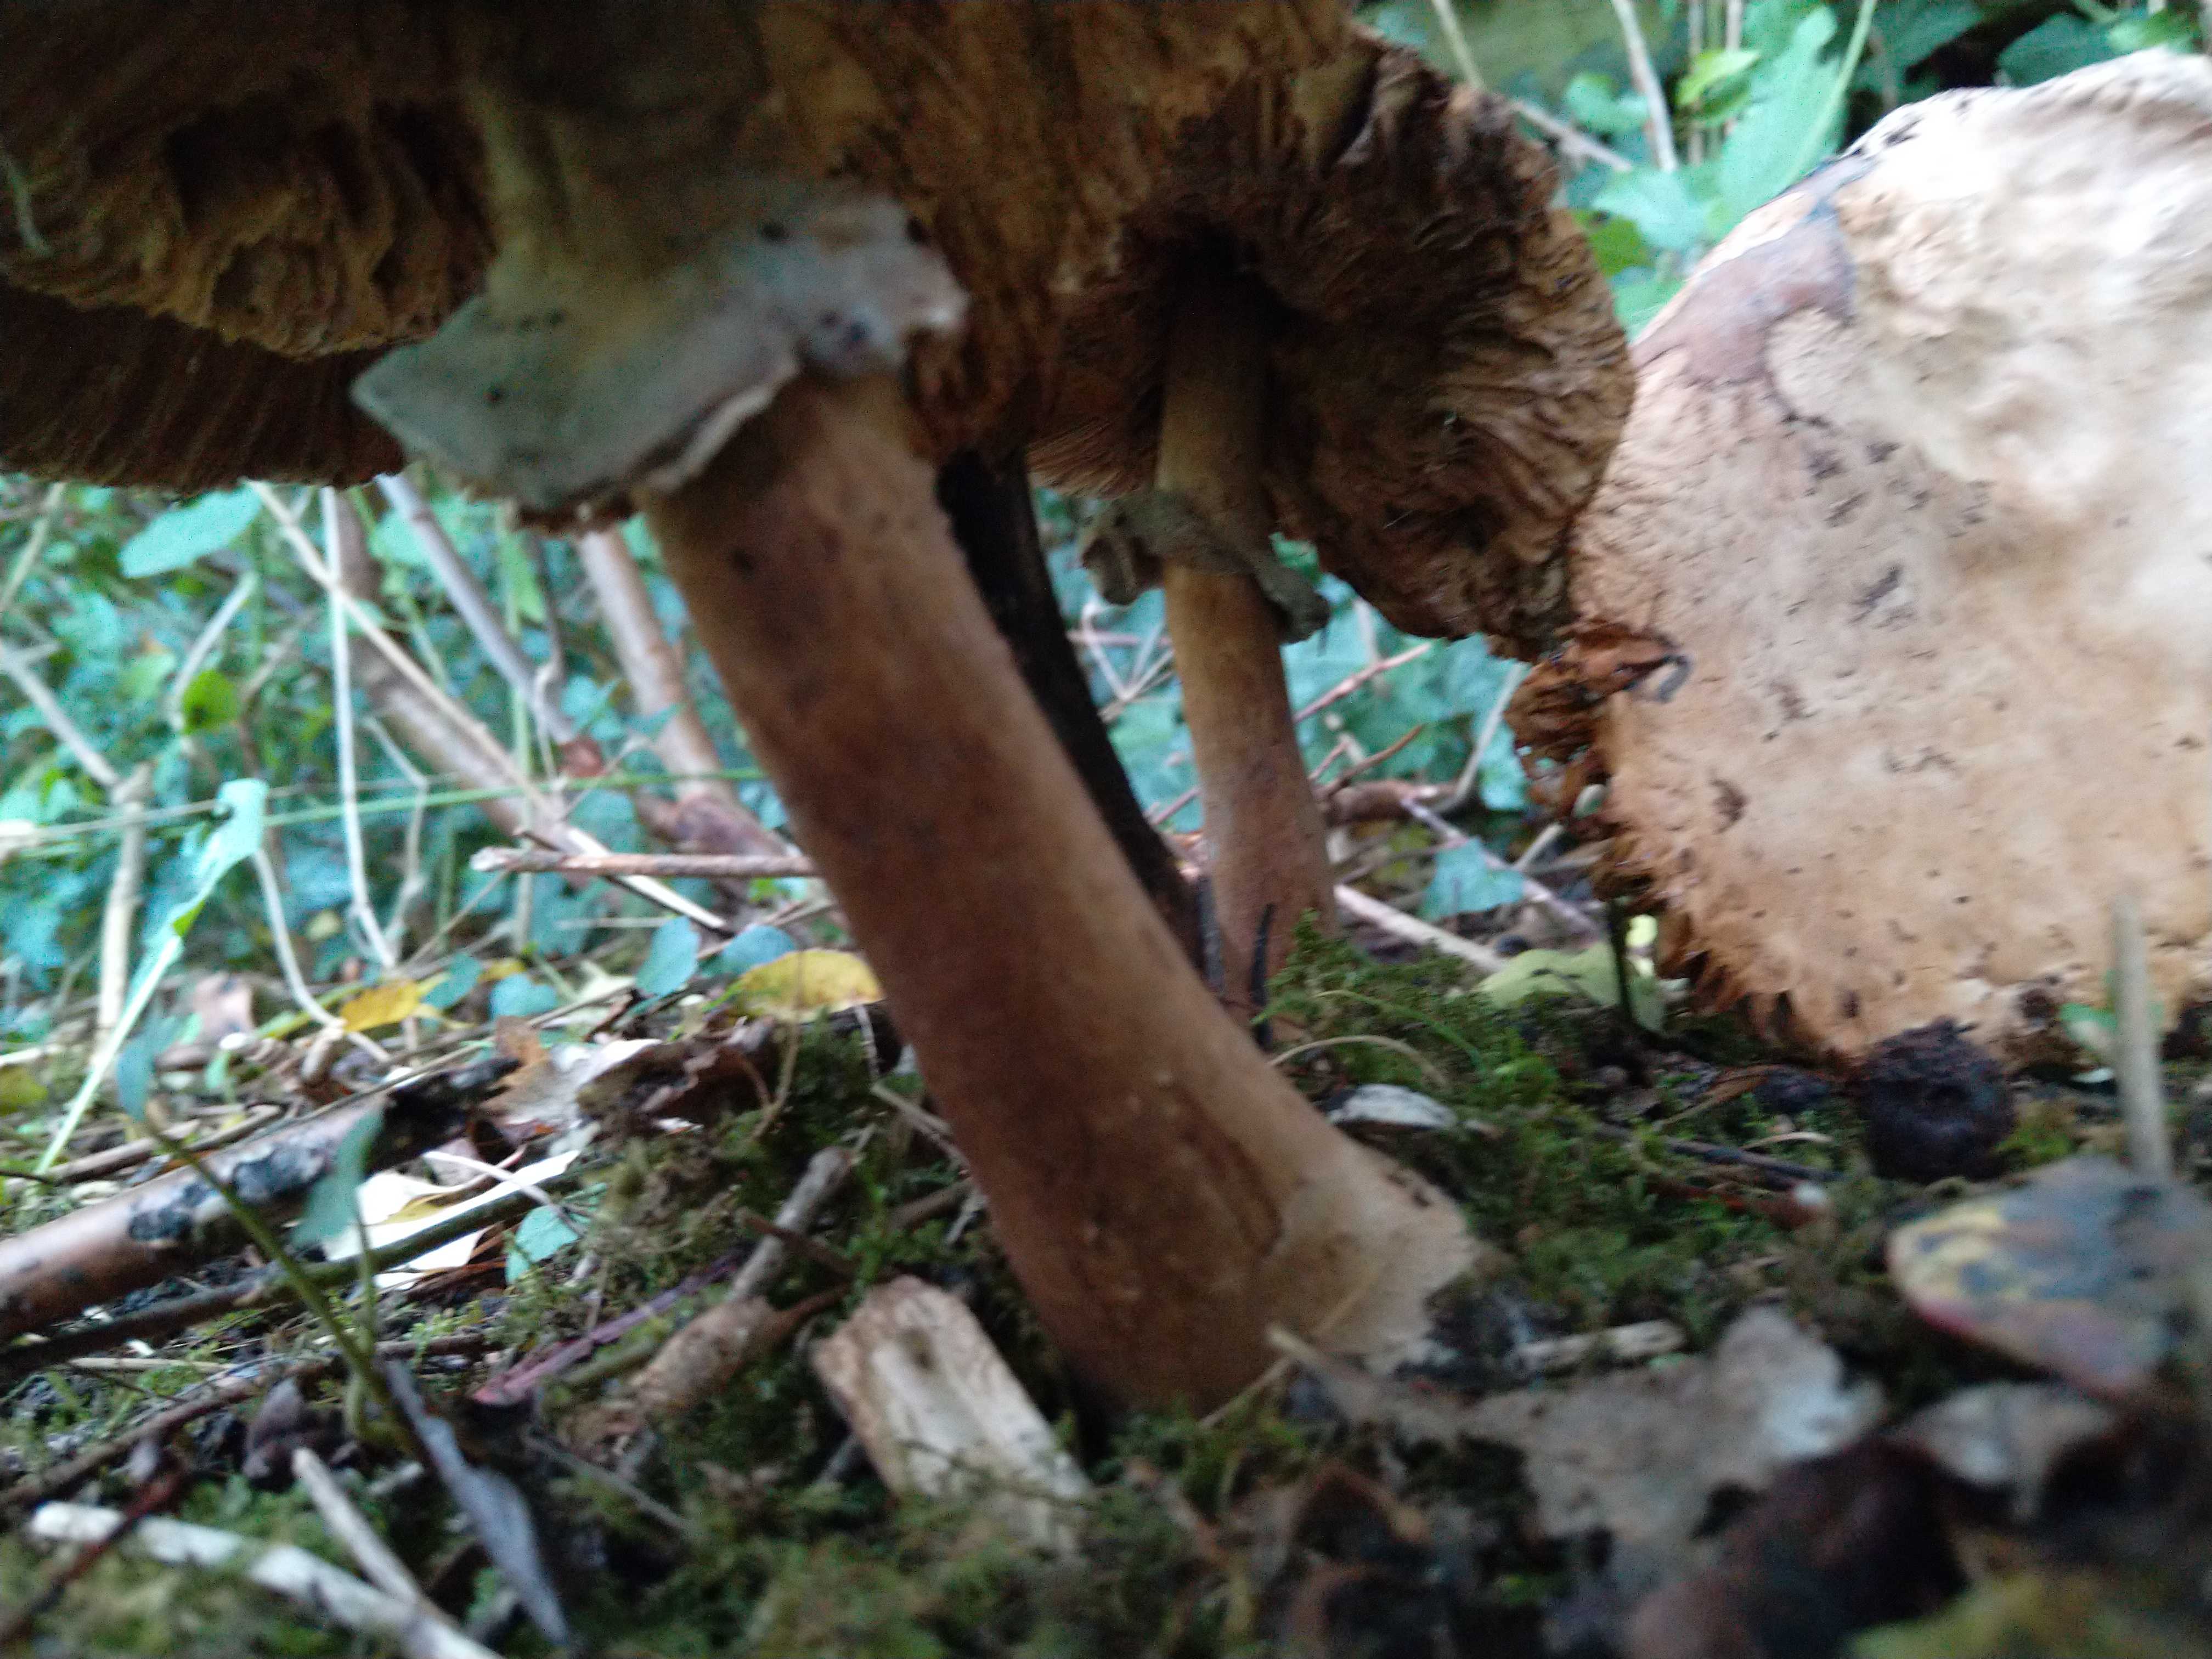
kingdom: Fungi
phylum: Basidiomycota
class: Agaricomycetes
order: Agaricales
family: Agaricaceae
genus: Chlorophyllum
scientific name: Chlorophyllum brunneum
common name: giftig rabarberhat
